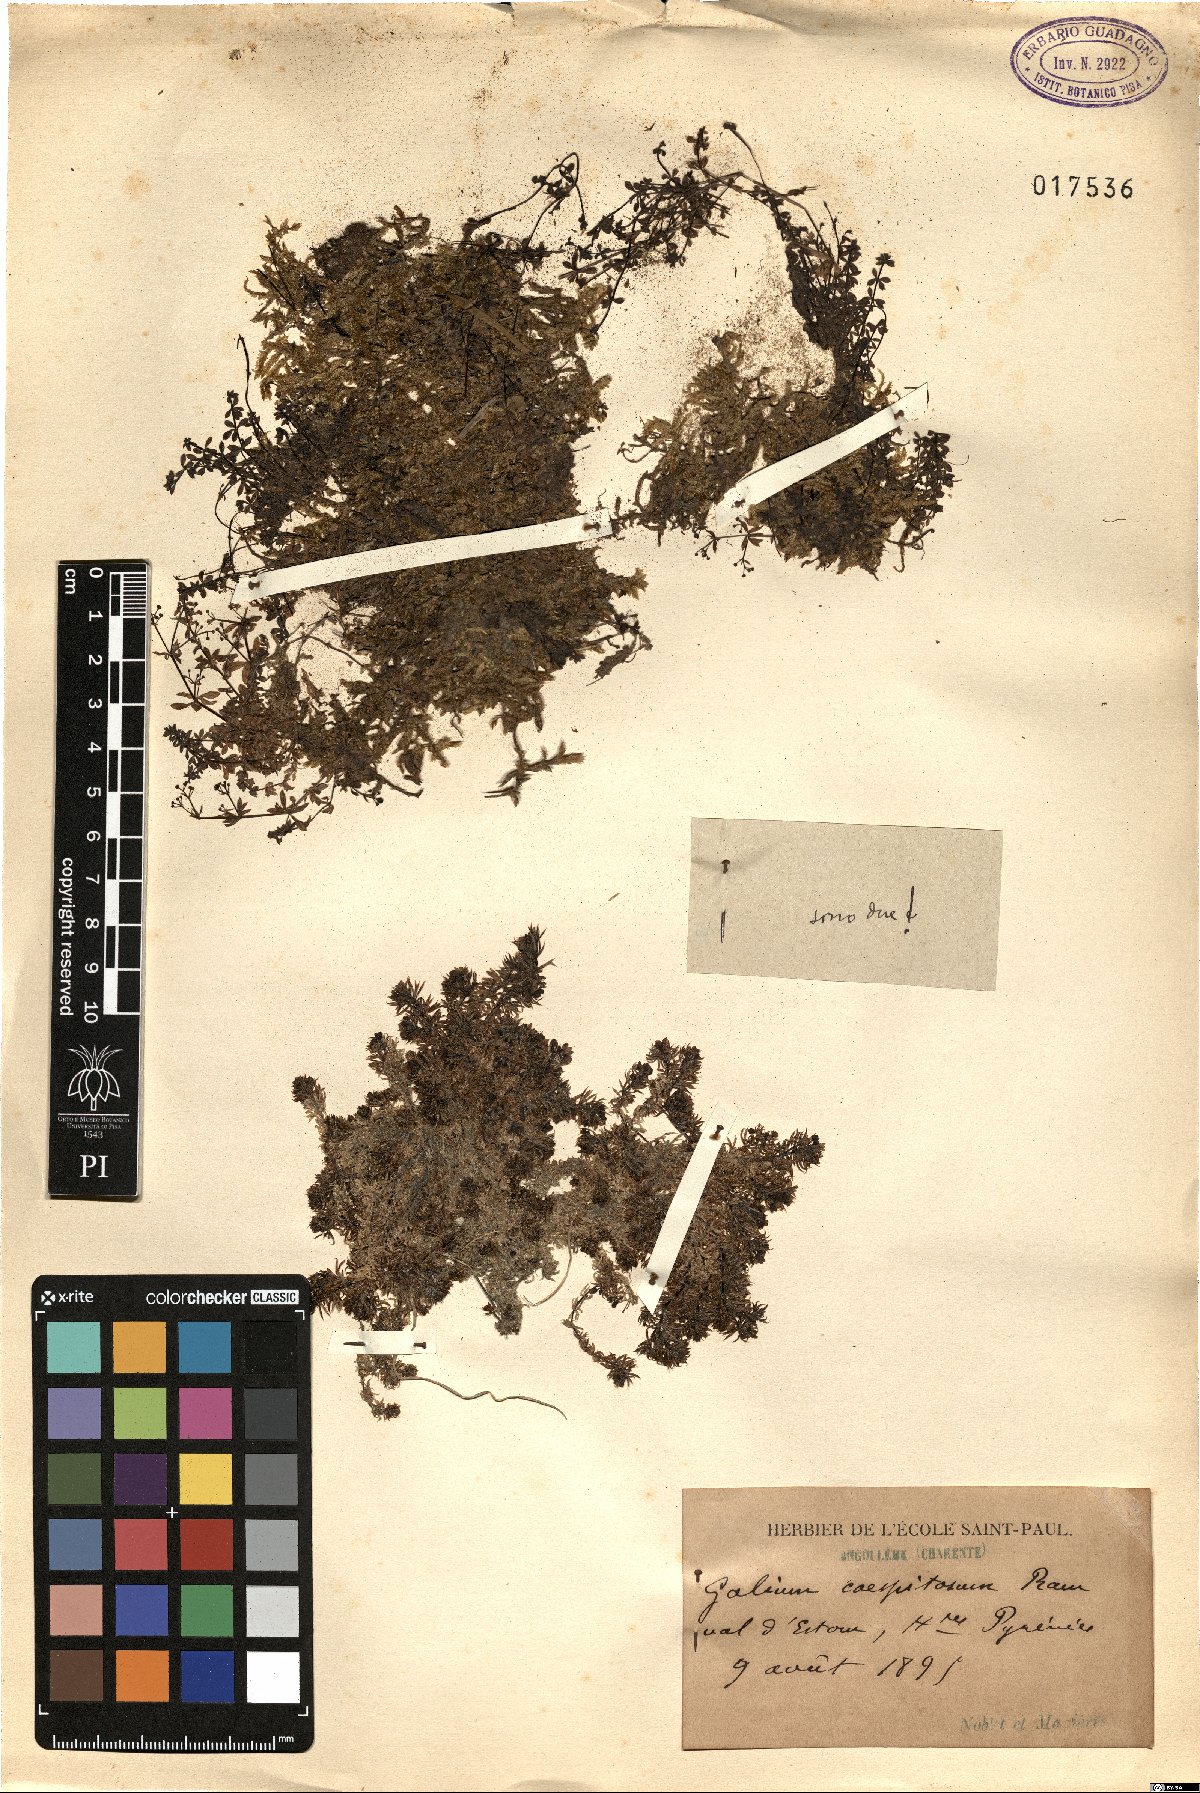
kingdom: Plantae
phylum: Tracheophyta
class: Magnoliopsida
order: Gentianales
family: Rubiaceae
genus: Galium
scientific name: Galium cespitosum
